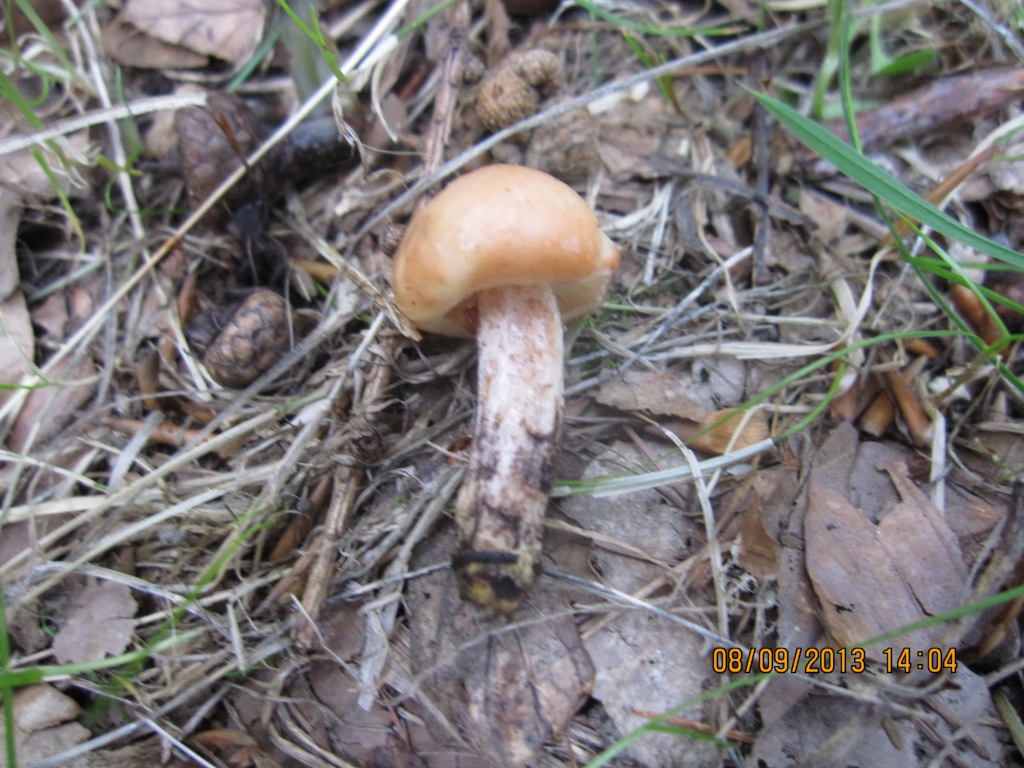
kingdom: Fungi
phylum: Basidiomycota
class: Agaricomycetes
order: Boletales
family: Gomphidiaceae
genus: Gomphidius
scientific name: Gomphidius maculatus
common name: rødmende slimslør
